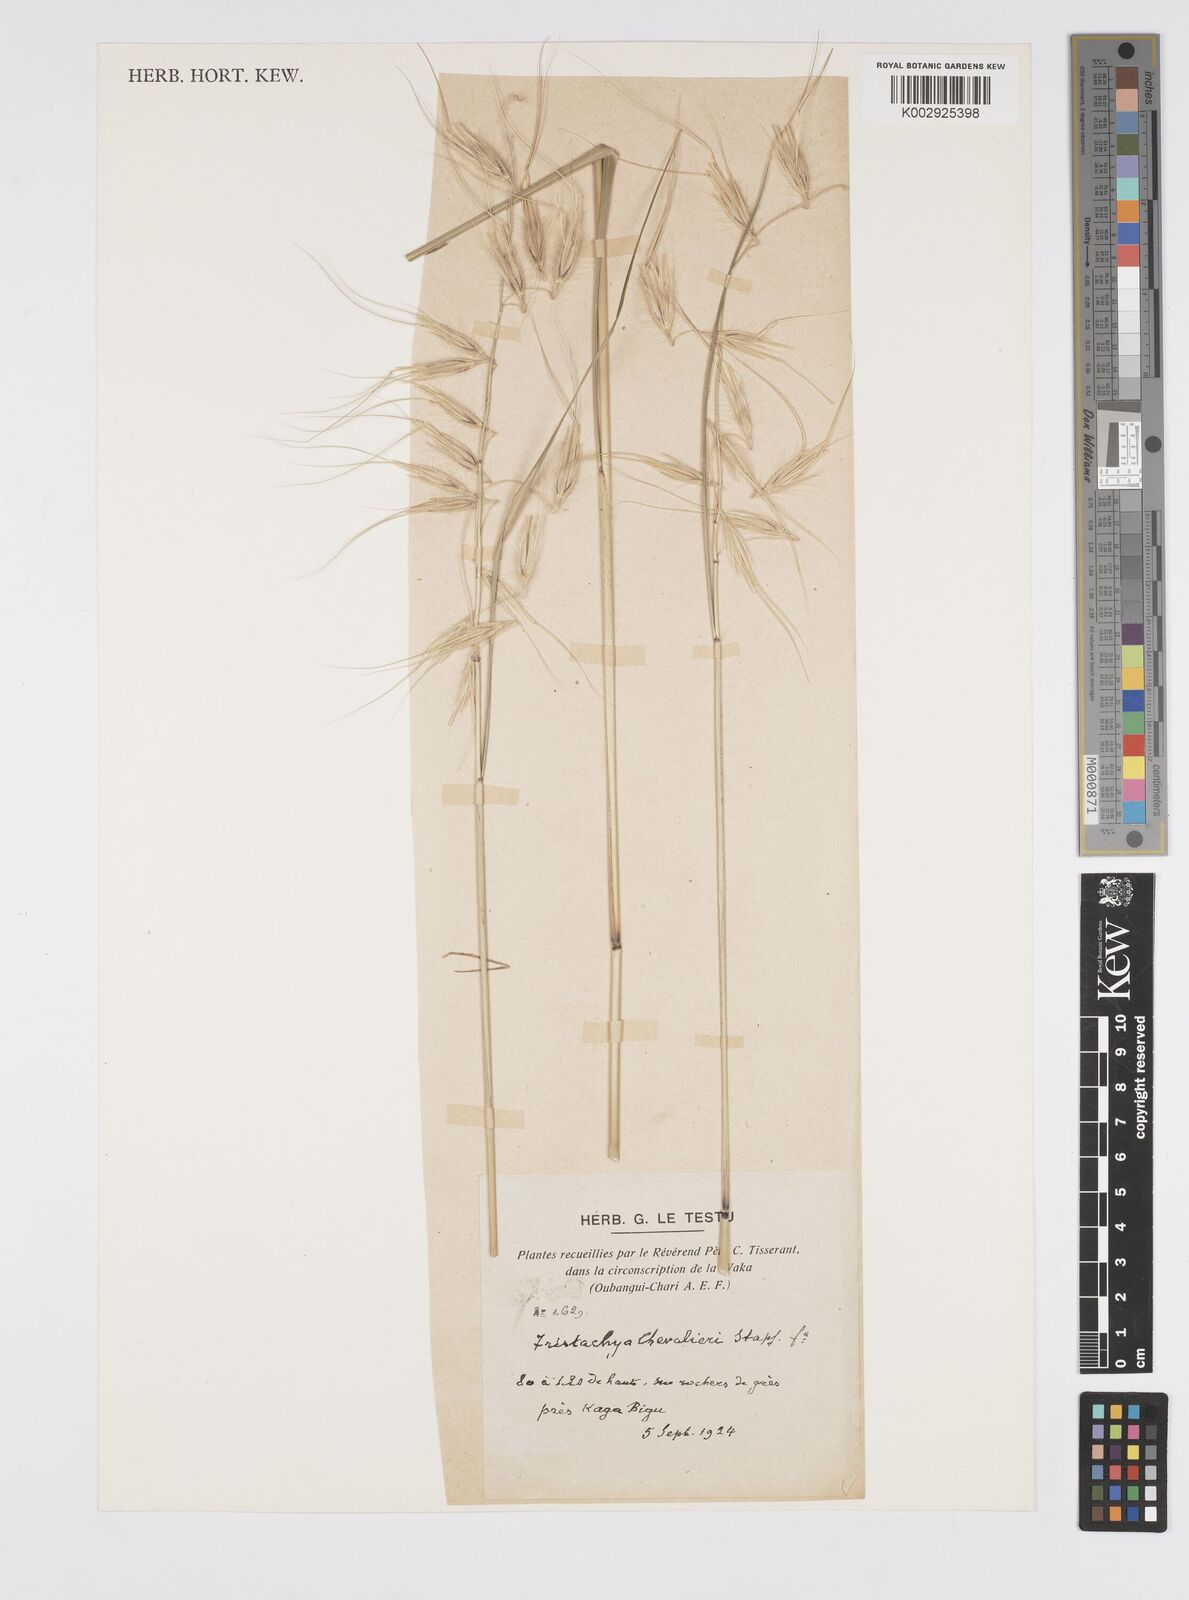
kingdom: Plantae
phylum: Tracheophyta
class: Liliopsida
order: Poales
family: Poaceae
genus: Loudetiopsis
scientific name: Loudetiopsis chevalieri
